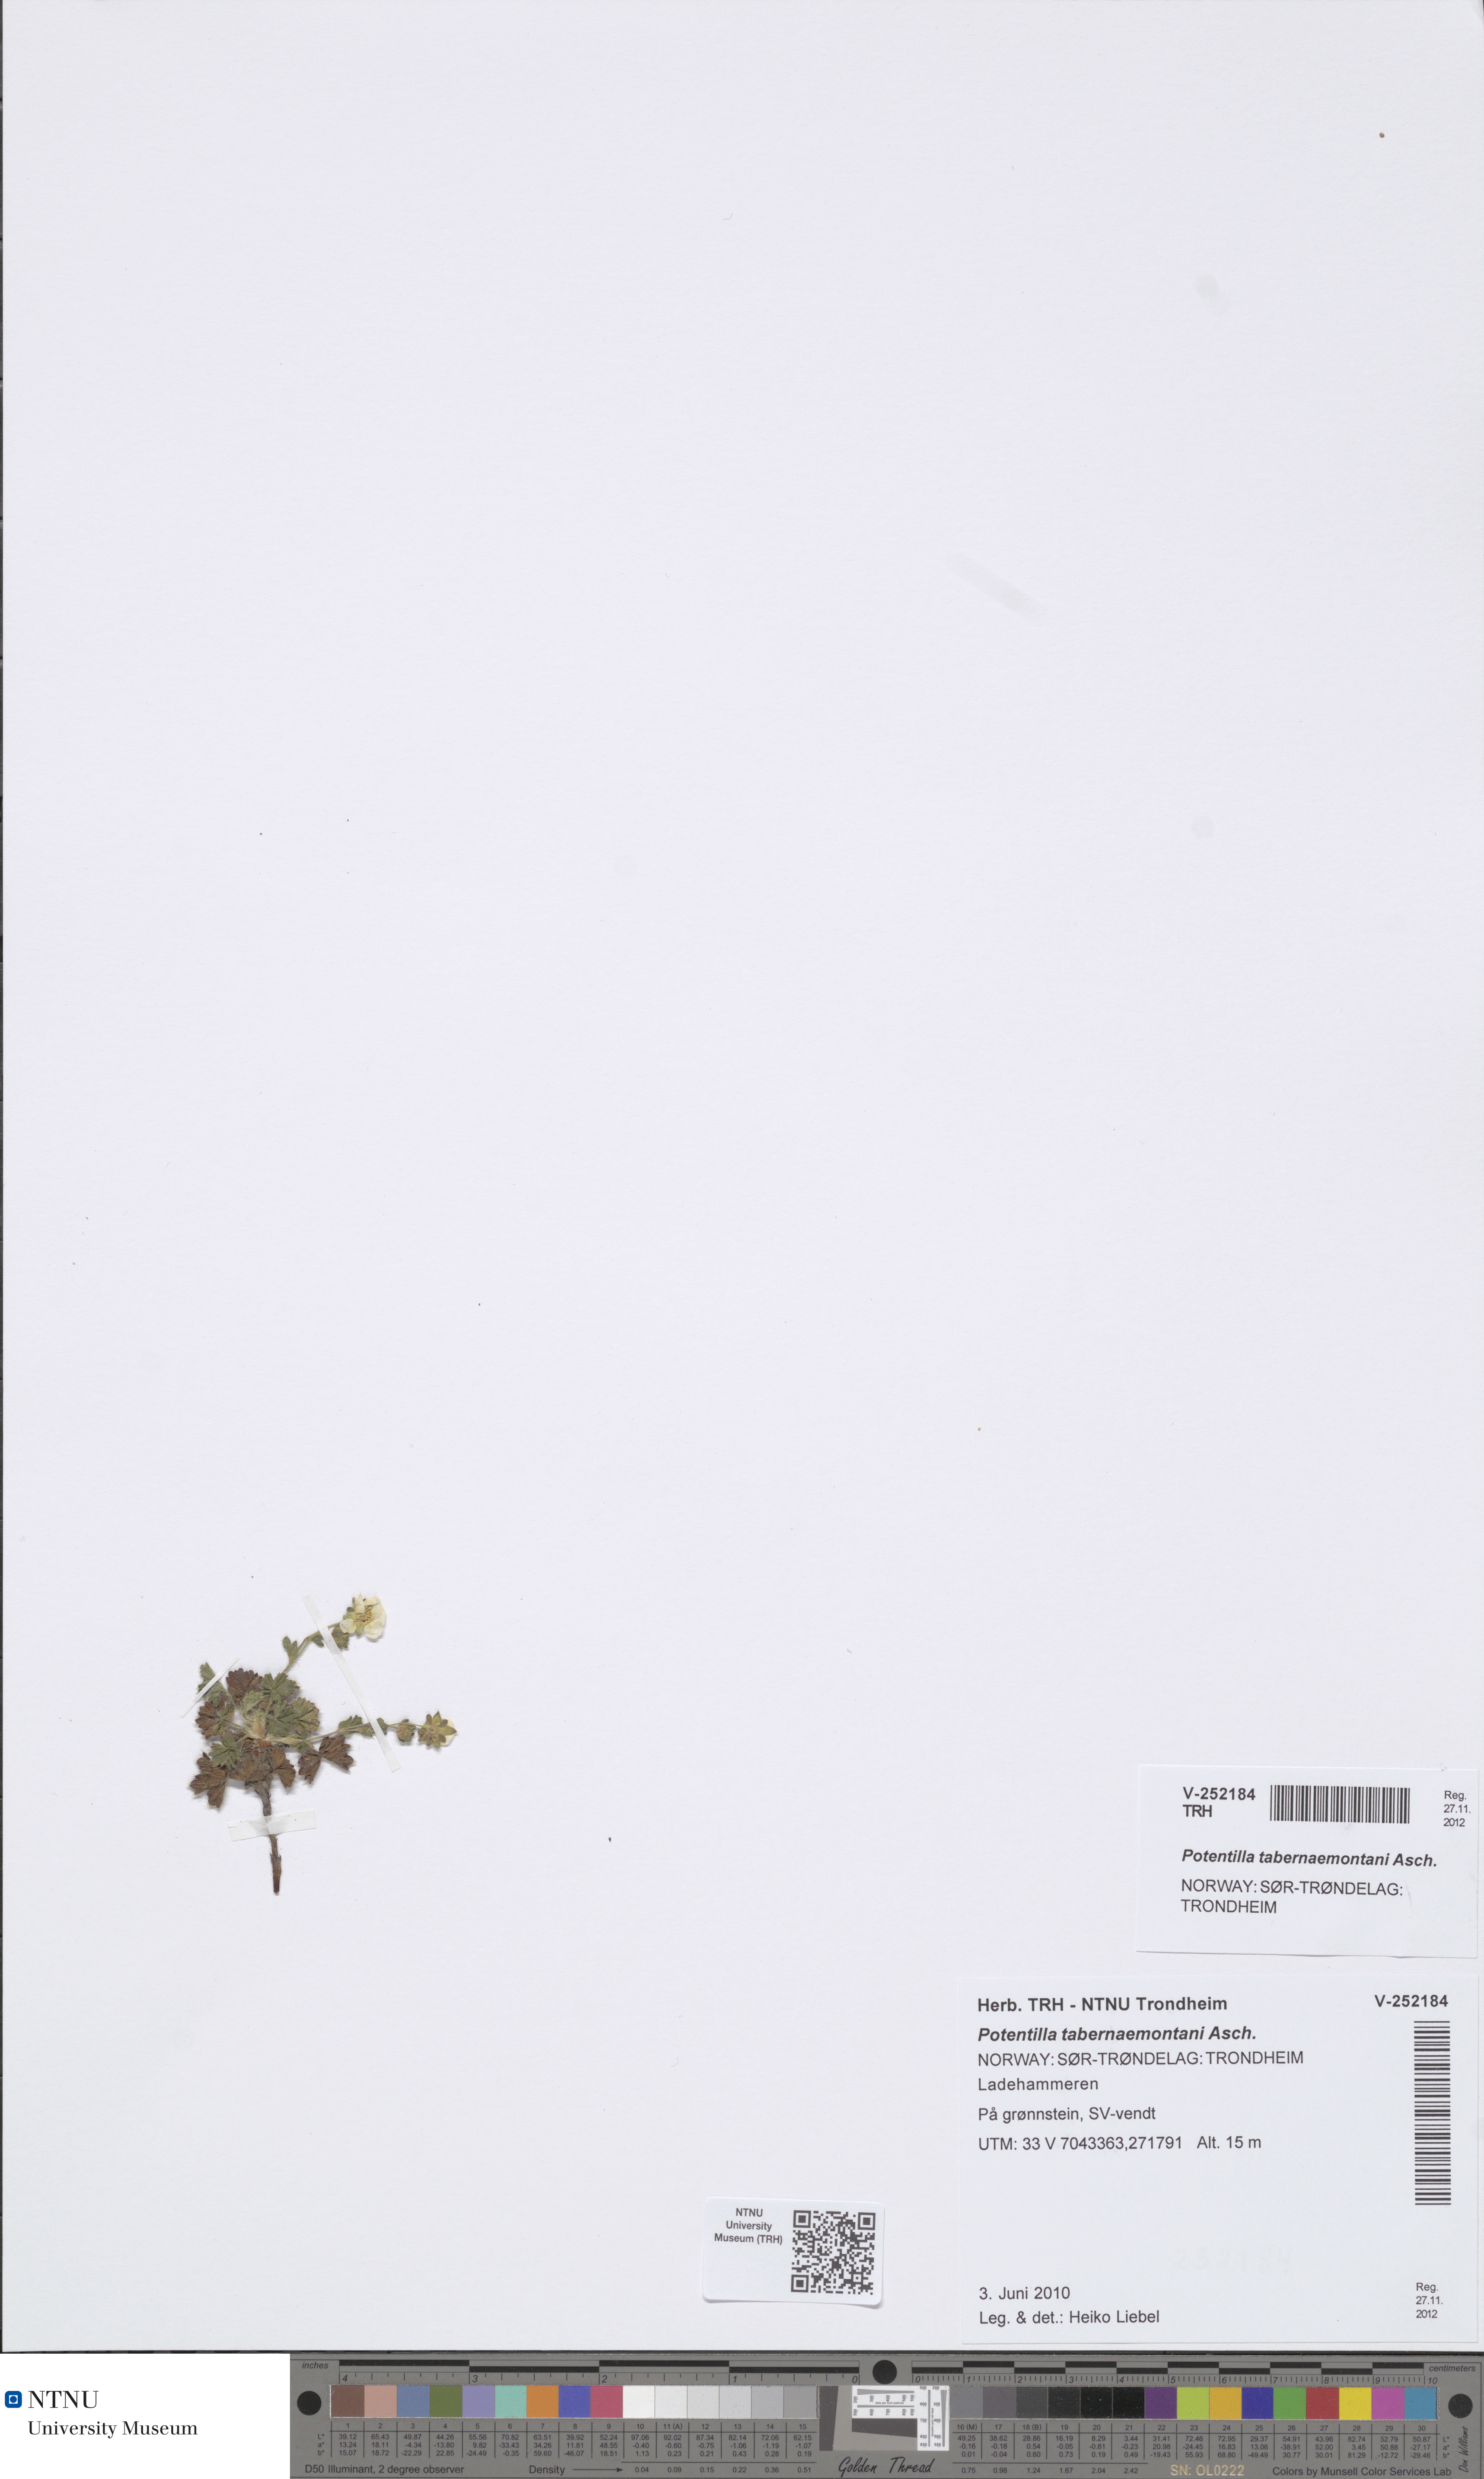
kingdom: Plantae
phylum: Tracheophyta
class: Magnoliopsida
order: Rosales
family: Rosaceae
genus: Potentilla
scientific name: Potentilla verna
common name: Spring cinquefoil
